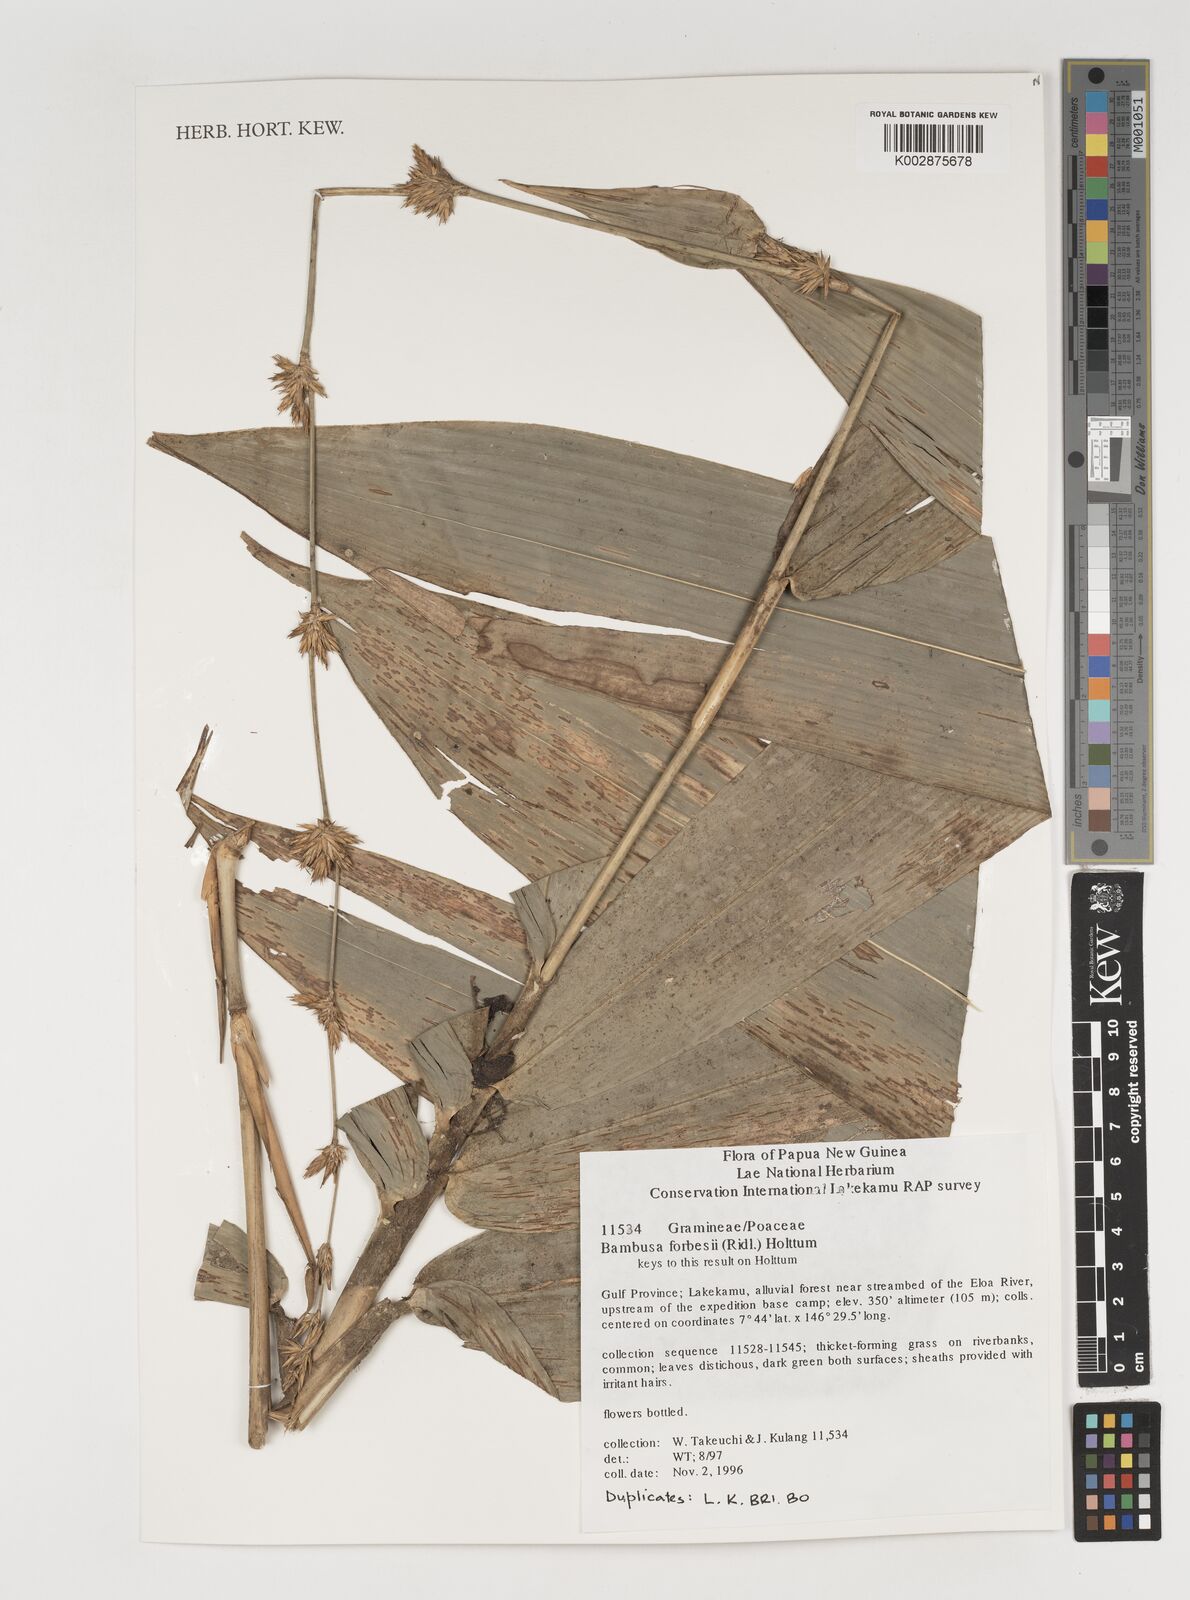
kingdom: Plantae
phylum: Tracheophyta
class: Liliopsida
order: Poales
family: Poaceae
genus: Neololeba
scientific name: Neololeba atra
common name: Cape bamboo
